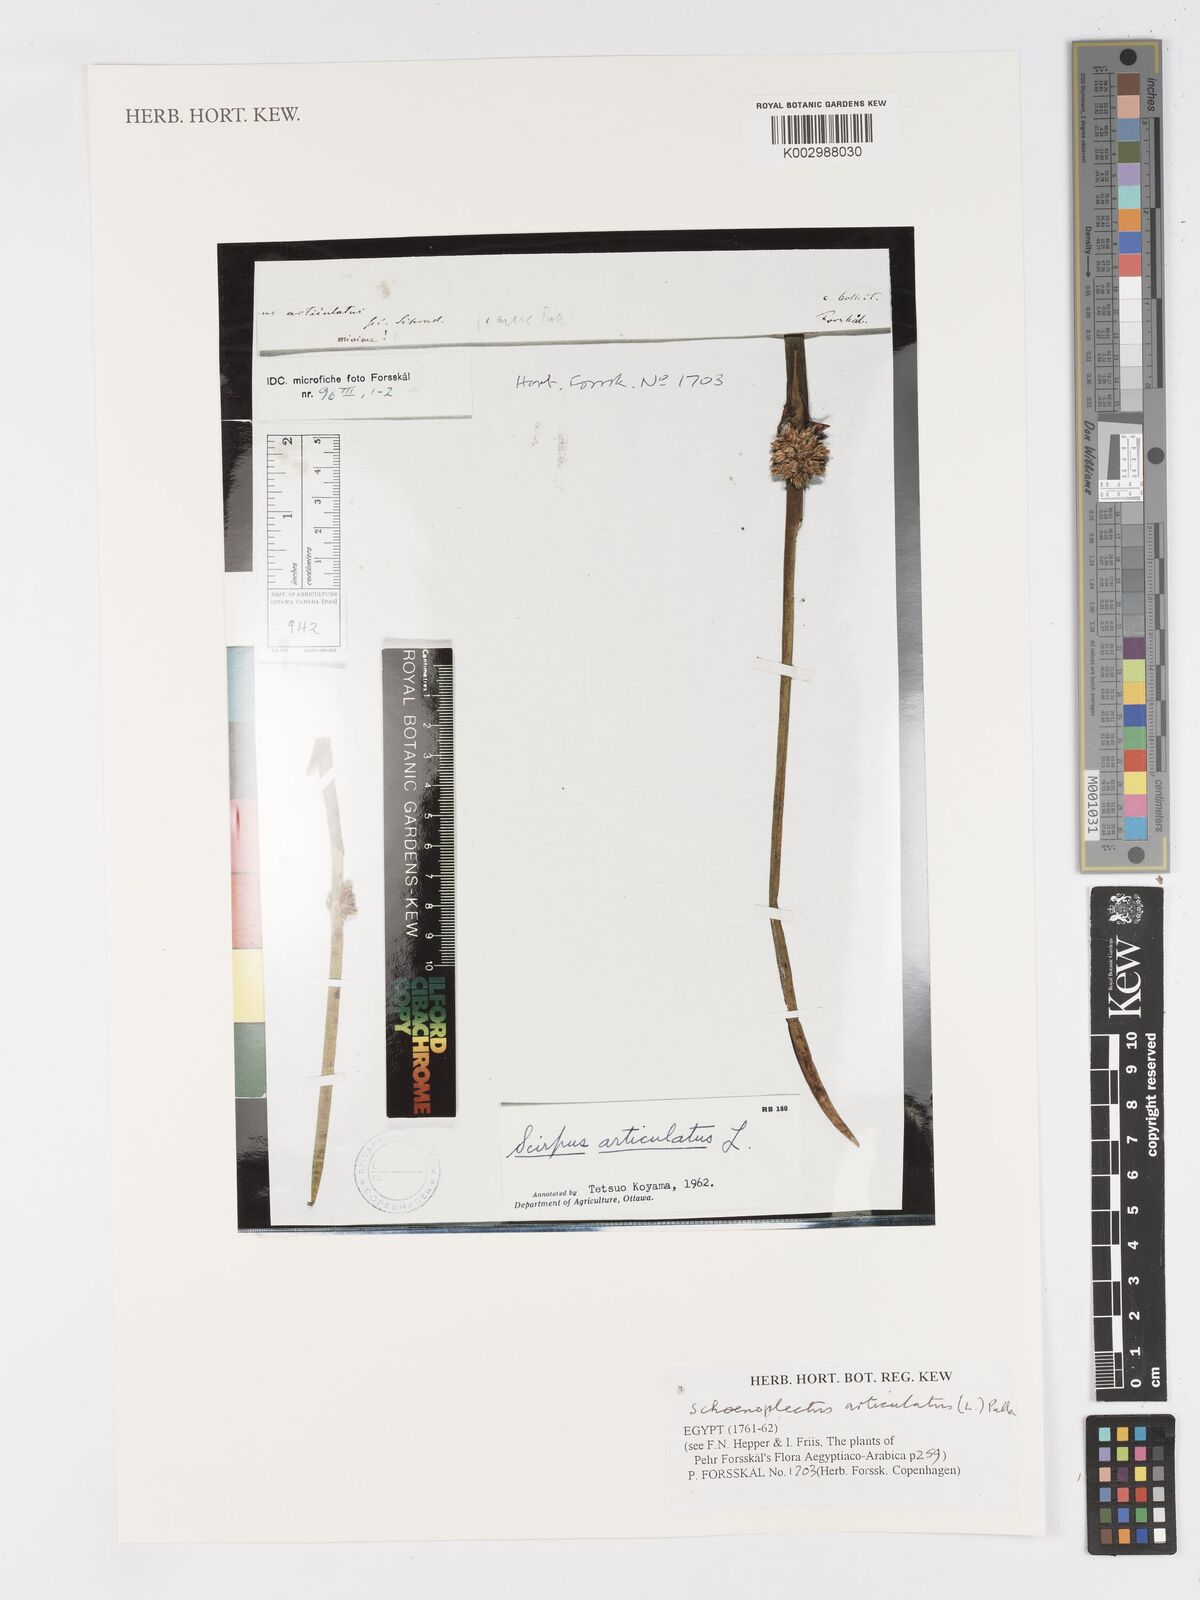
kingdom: Plantae
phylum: Tracheophyta
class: Liliopsida
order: Poales
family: Cyperaceae
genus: Schoenoplectiella
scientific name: Schoenoplectiella articulata
